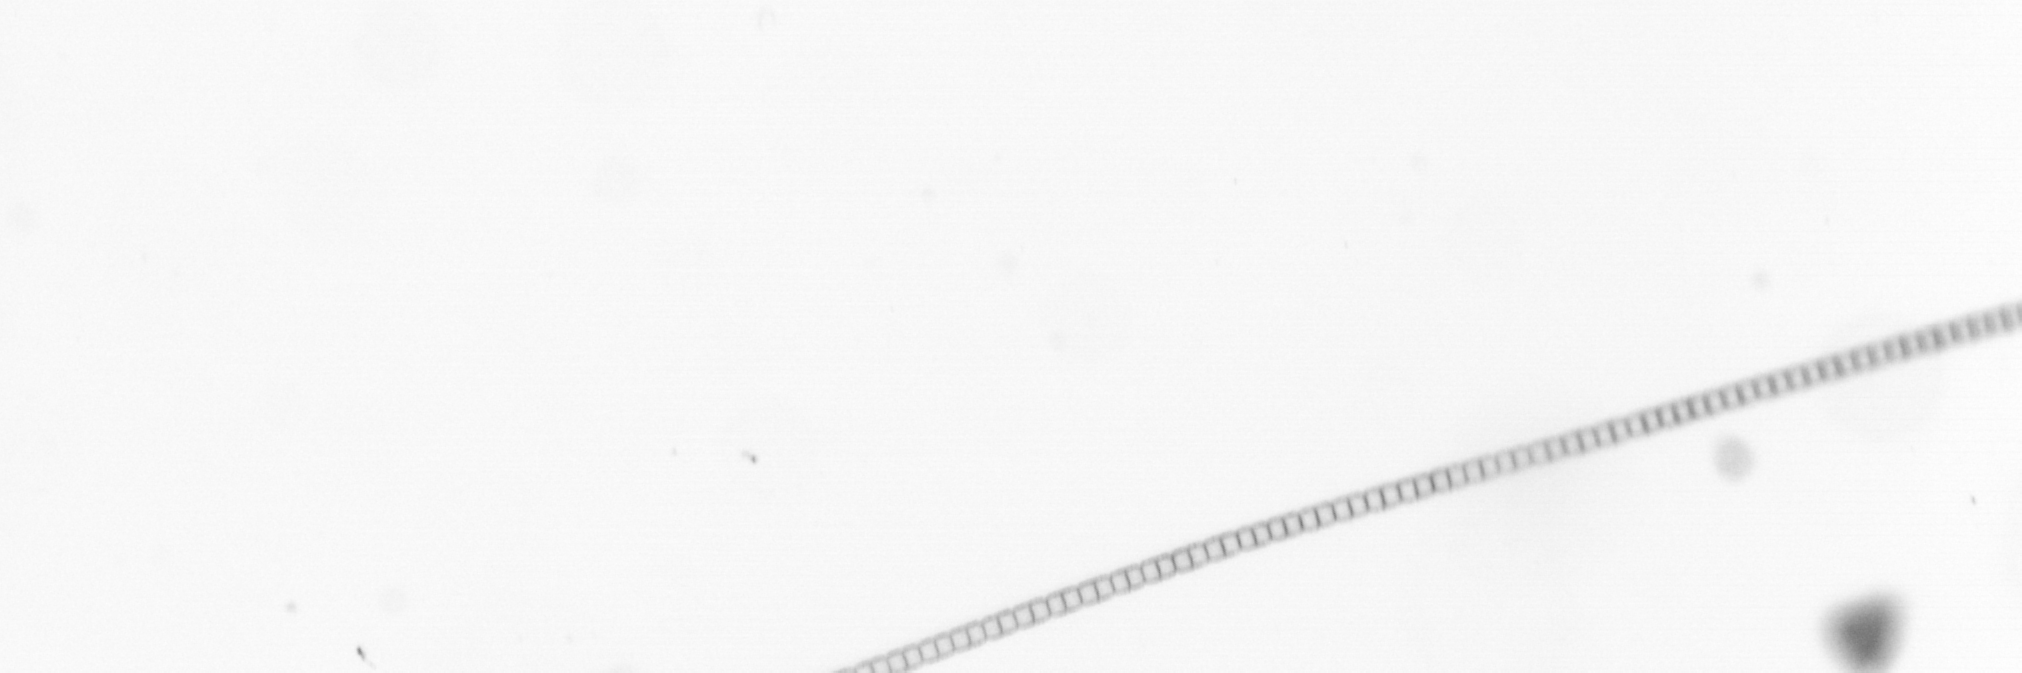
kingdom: Chromista
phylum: Ochrophyta
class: Bacillariophyceae
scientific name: Bacillariophyceae
